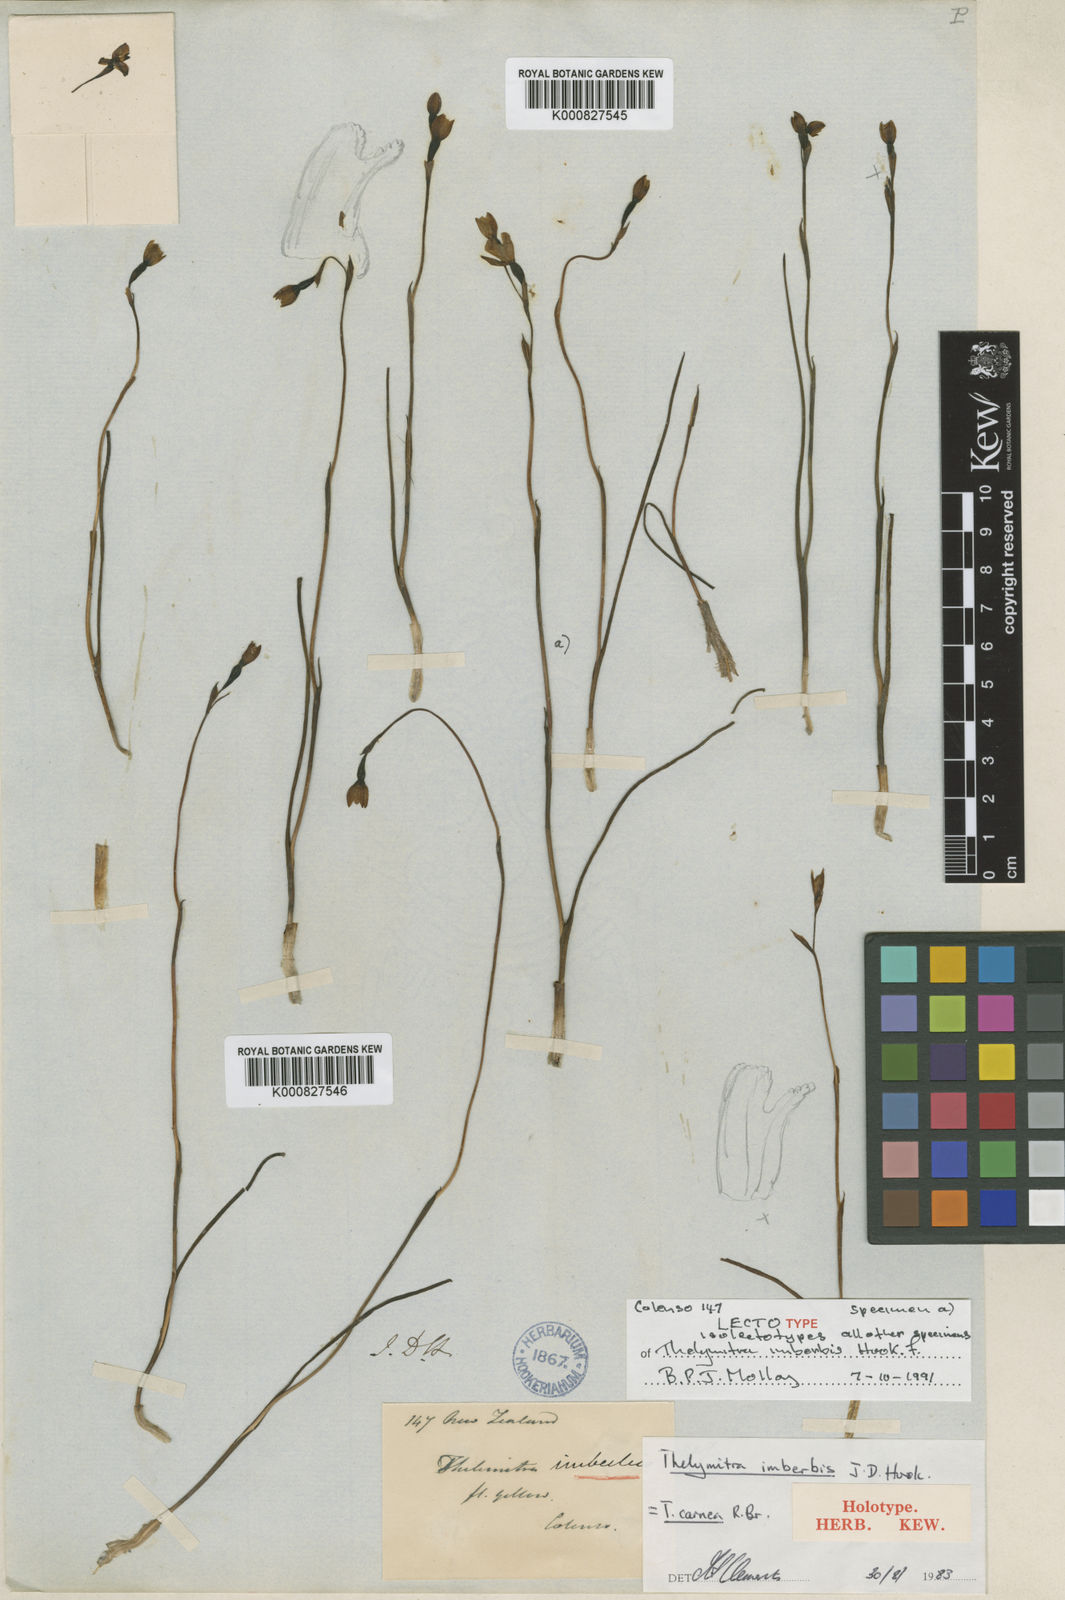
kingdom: Plantae
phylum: Tracheophyta
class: Liliopsida
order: Asparagales
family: Orchidaceae
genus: Thelymitra
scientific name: Thelymitra
